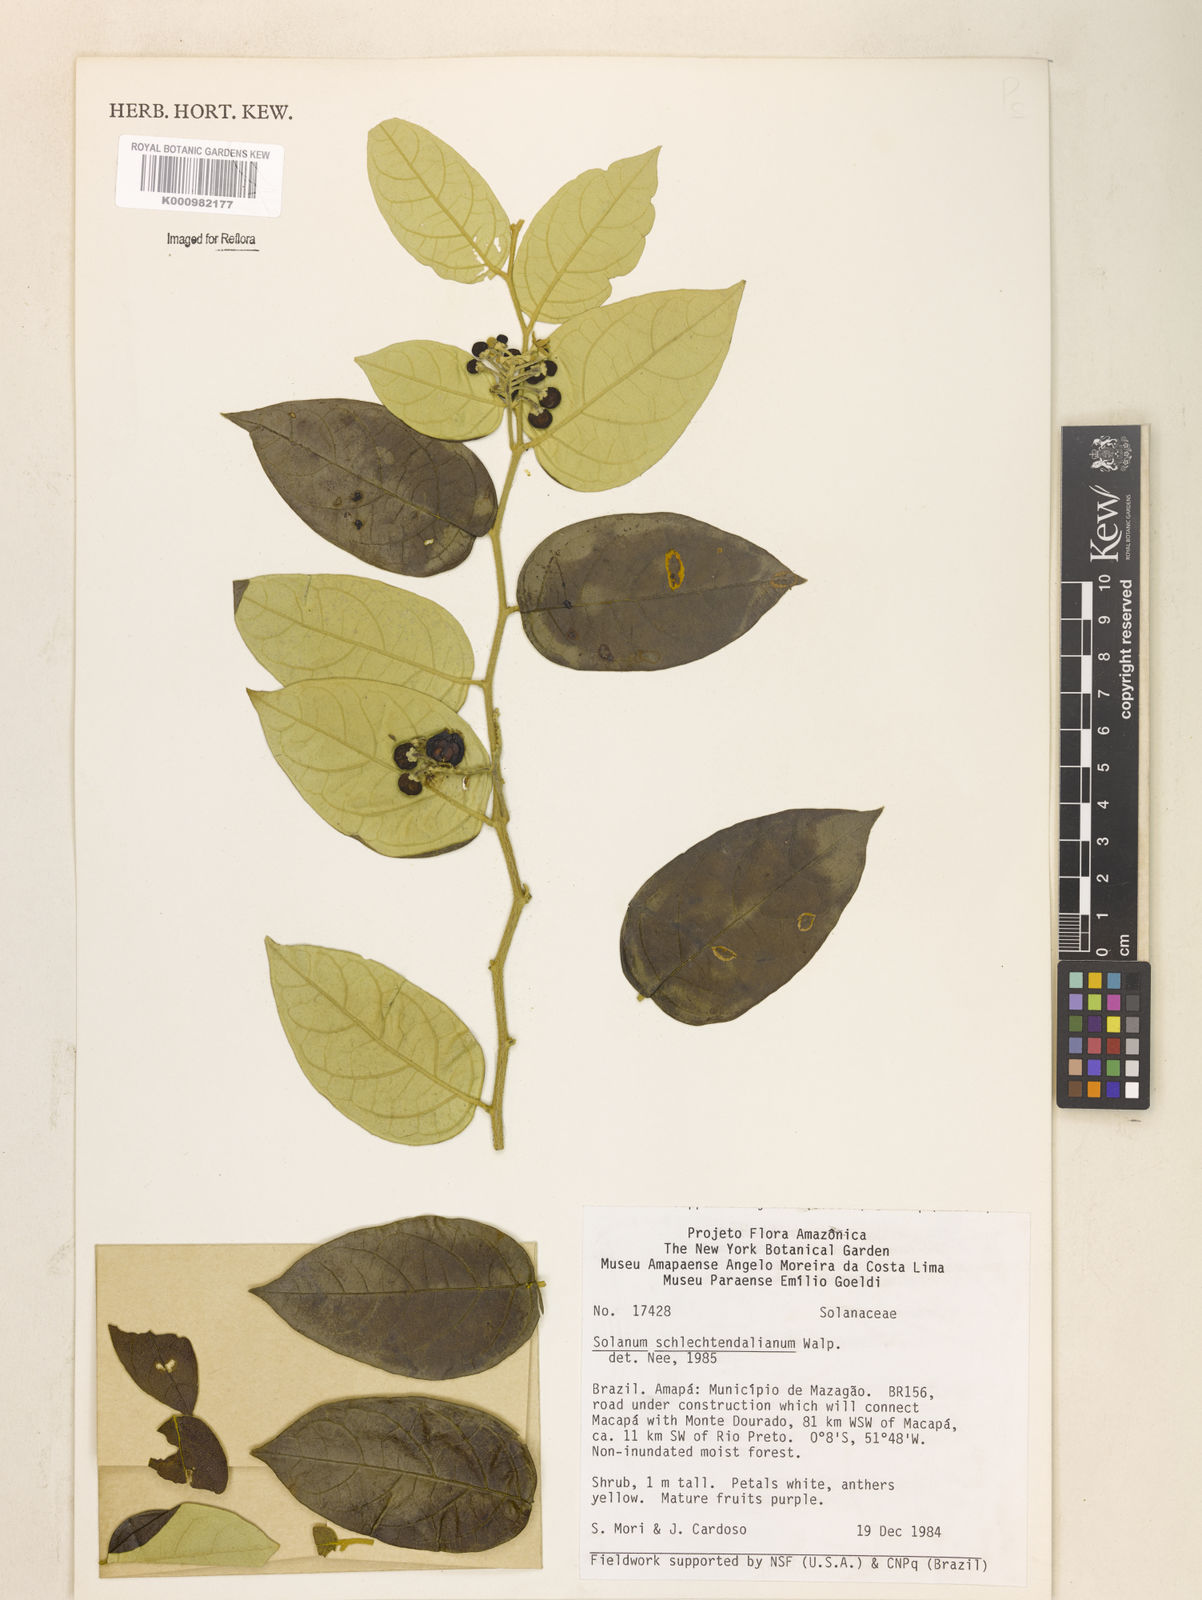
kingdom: Plantae
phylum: Tracheophyta
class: Magnoliopsida
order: Solanales
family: Solanaceae
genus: Solanum
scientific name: Solanum schlechtendalianum
